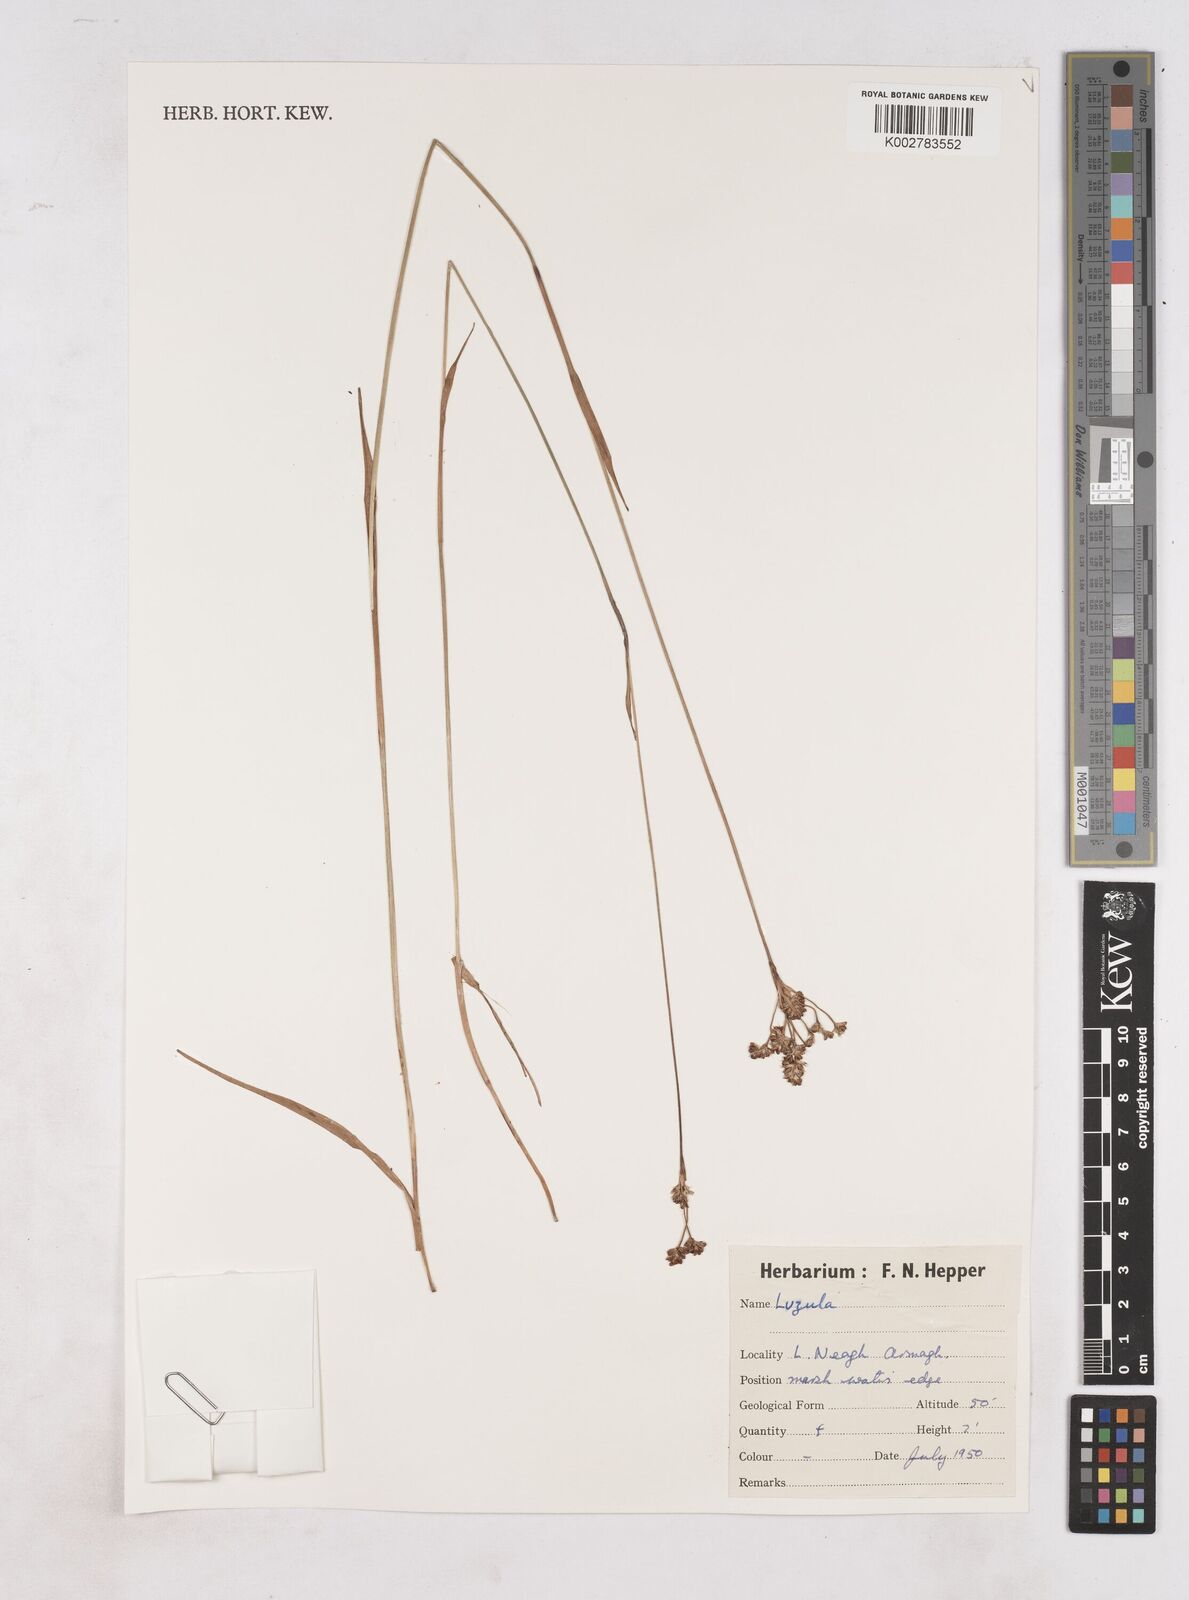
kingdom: Plantae
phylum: Tracheophyta
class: Liliopsida
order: Poales
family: Juncaceae
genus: Luzula
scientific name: Luzula
